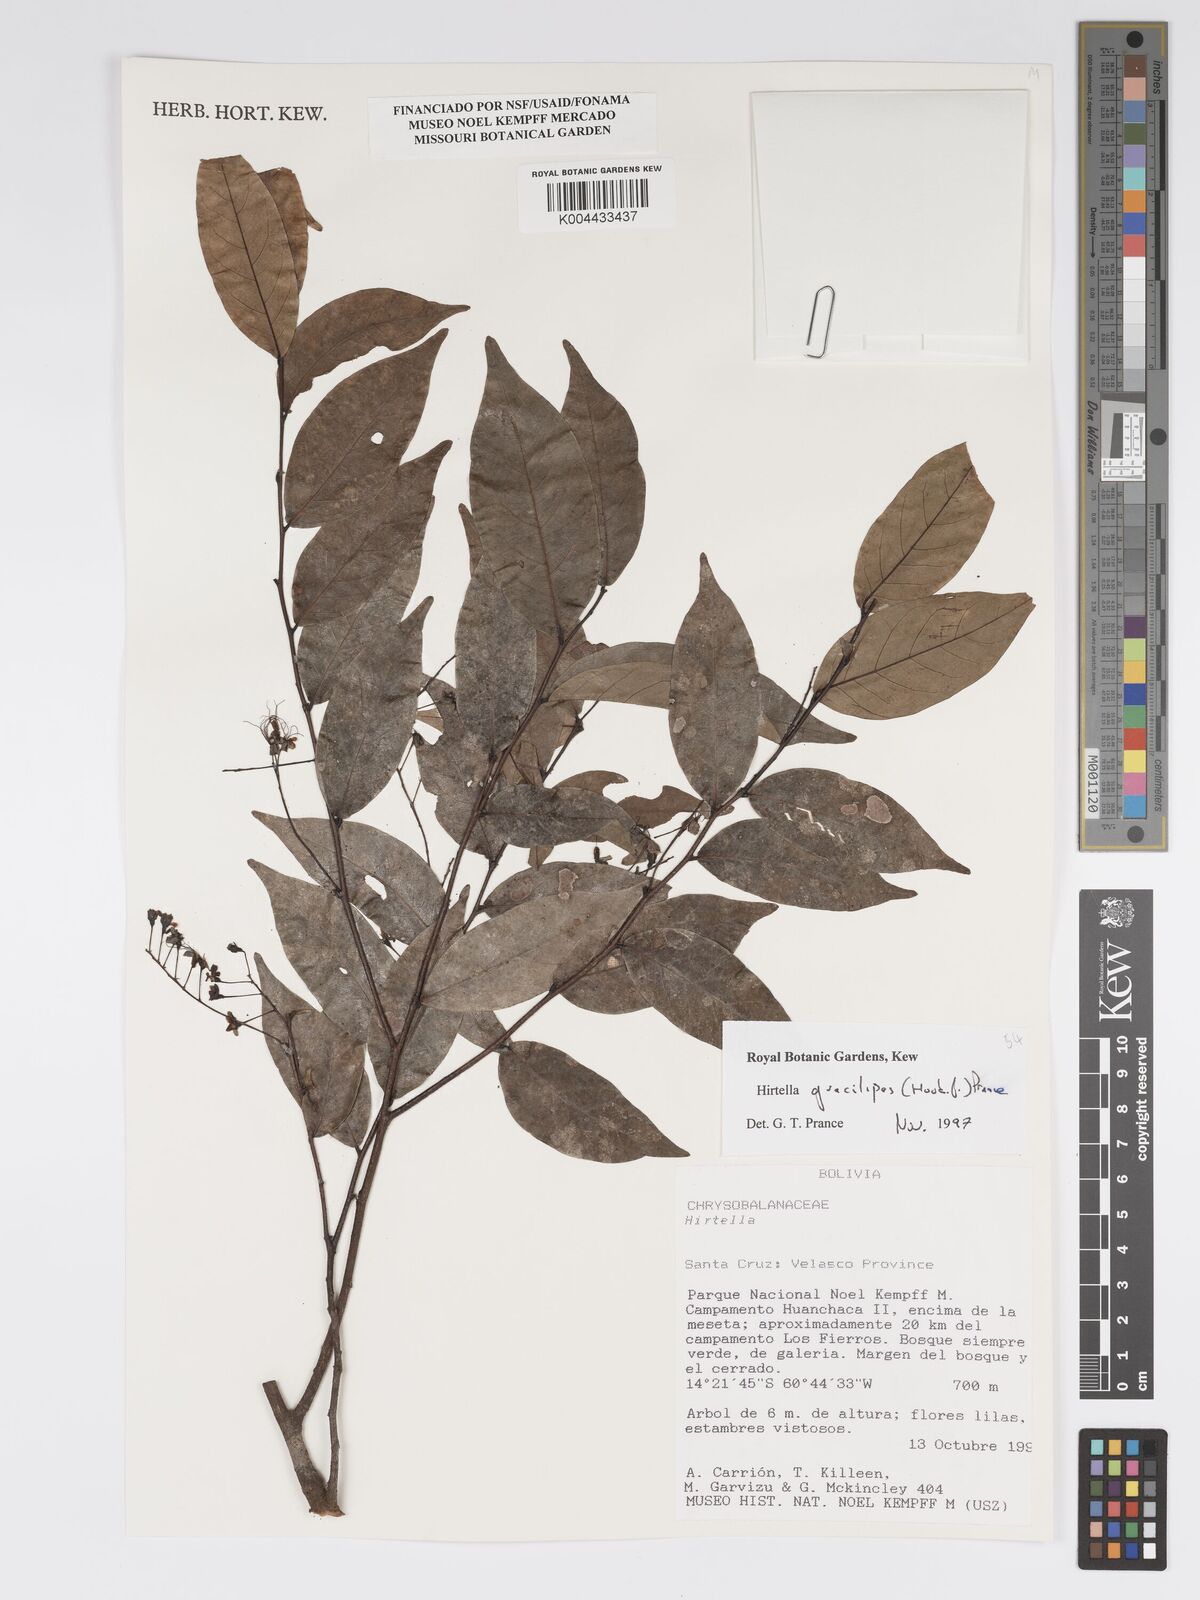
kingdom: Plantae
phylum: Tracheophyta
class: Magnoliopsida
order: Malpighiales
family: Chrysobalanaceae
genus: Hirtella
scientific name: Hirtella gracilipes
